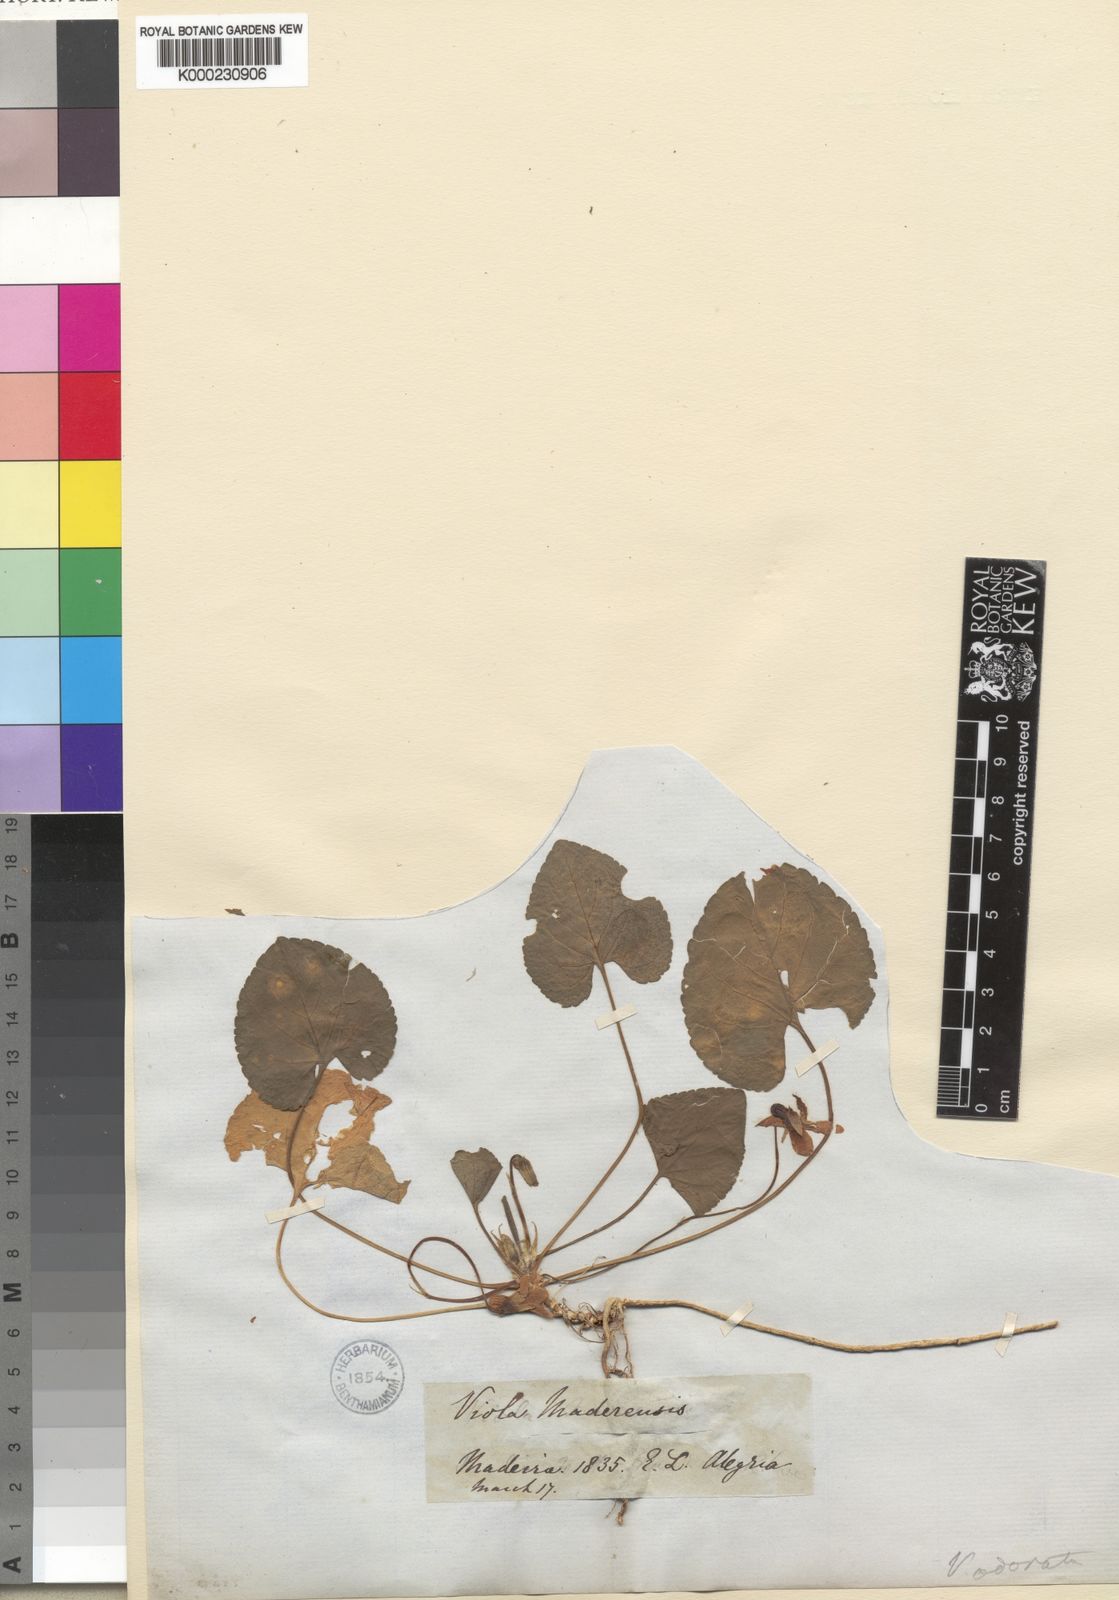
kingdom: Plantae
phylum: Tracheophyta
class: Magnoliopsida
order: Malpighiales
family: Violaceae
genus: Viola
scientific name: Viola odorata
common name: Sweet violet
